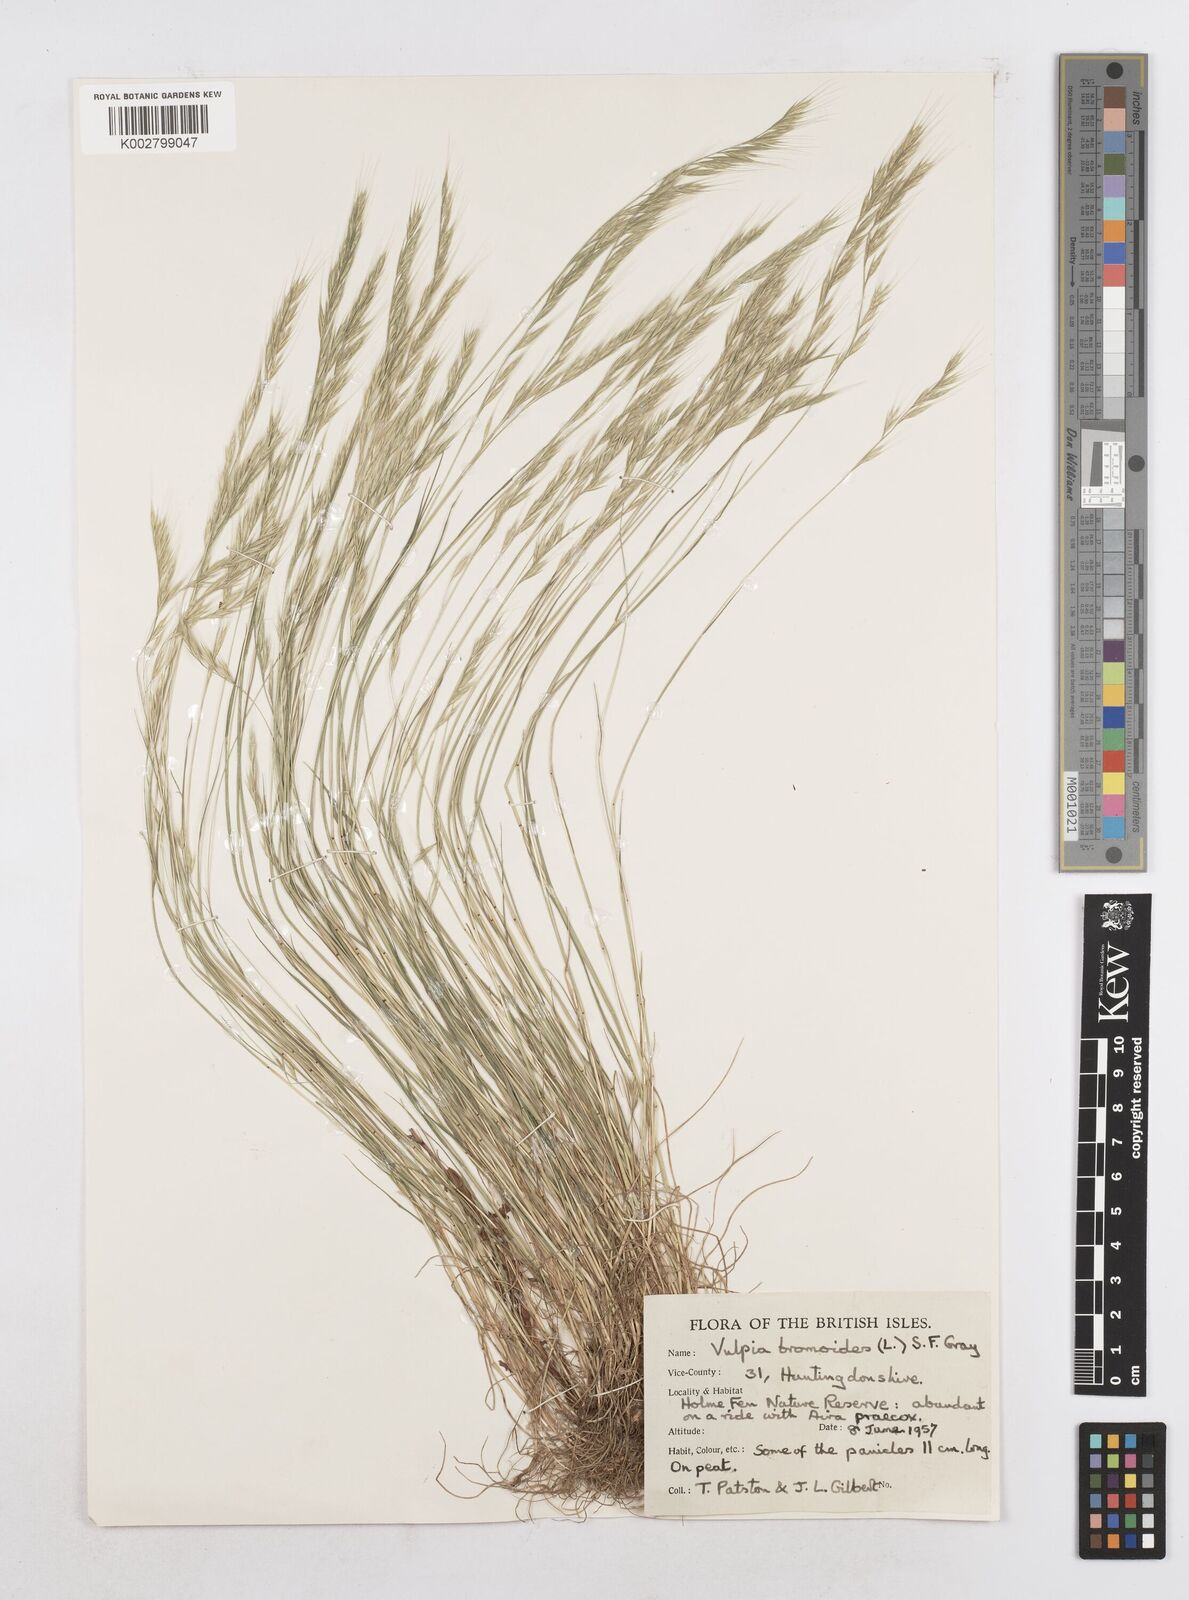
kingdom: Plantae
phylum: Tracheophyta
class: Liliopsida
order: Poales
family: Poaceae
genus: Festuca
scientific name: Festuca bromoides
